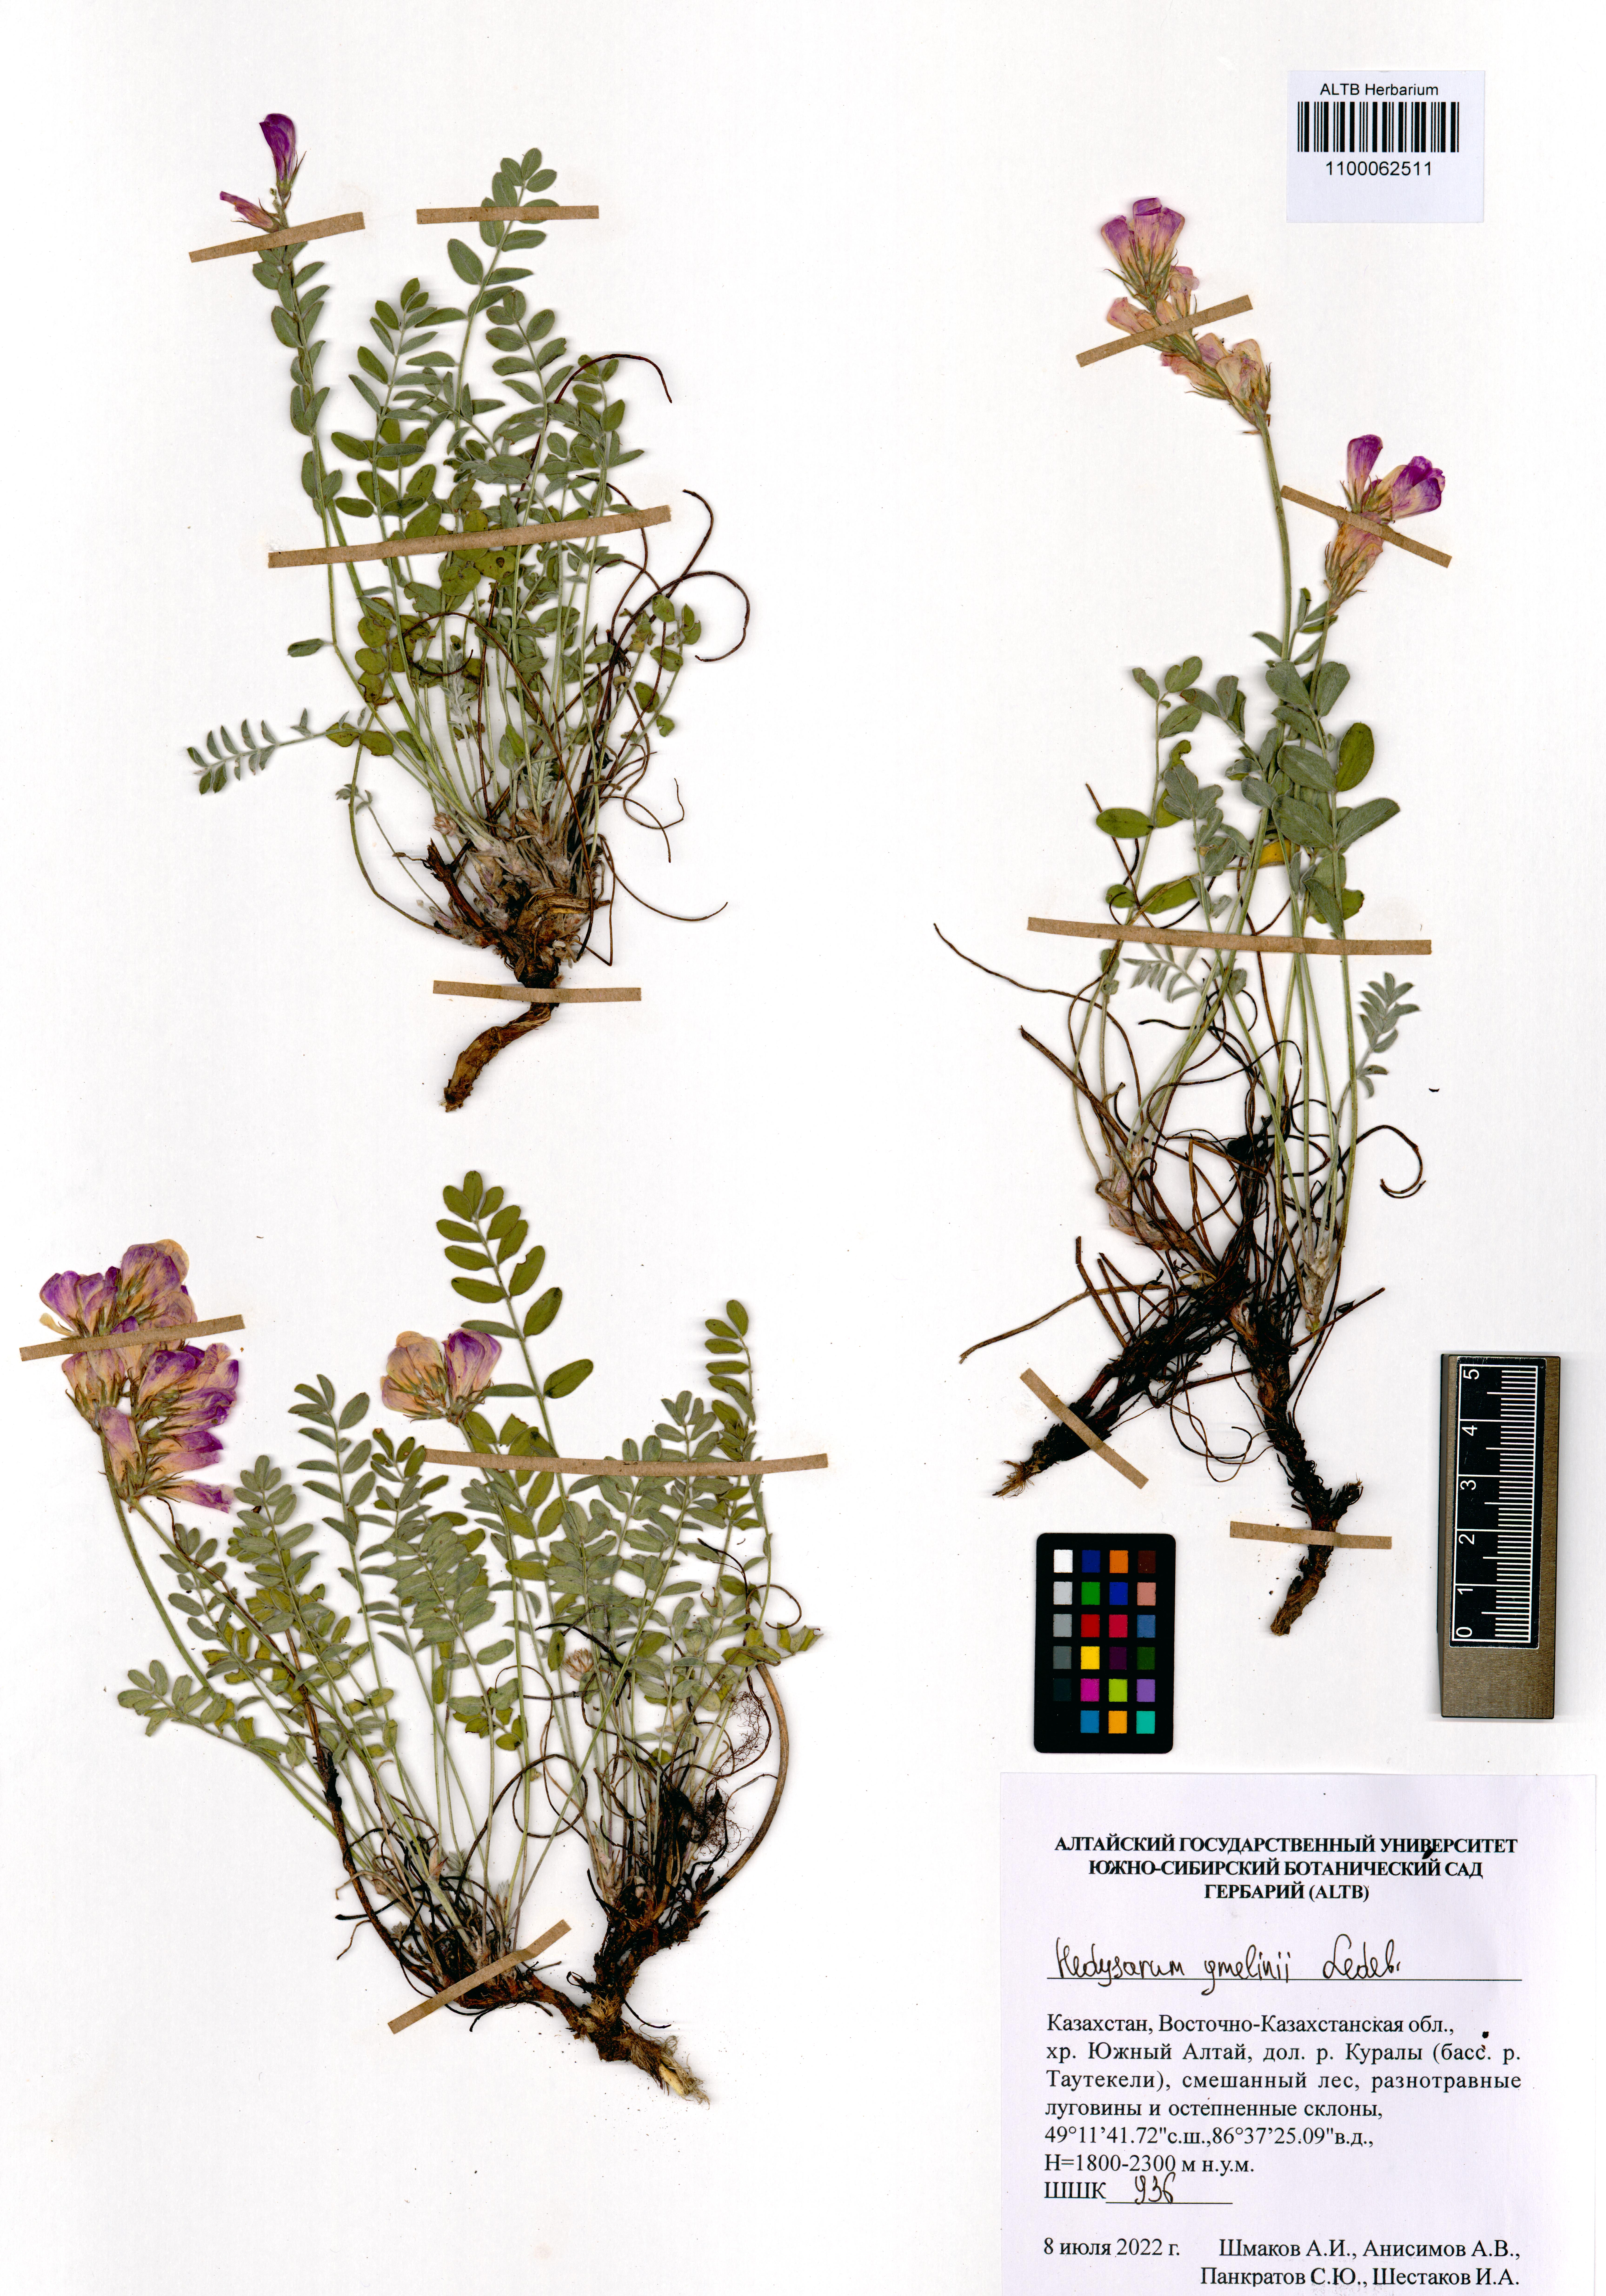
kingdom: Plantae
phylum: Tracheophyta
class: Magnoliopsida
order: Fabales
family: Fabaceae
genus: Hedysarum
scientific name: Hedysarum gmelinii
